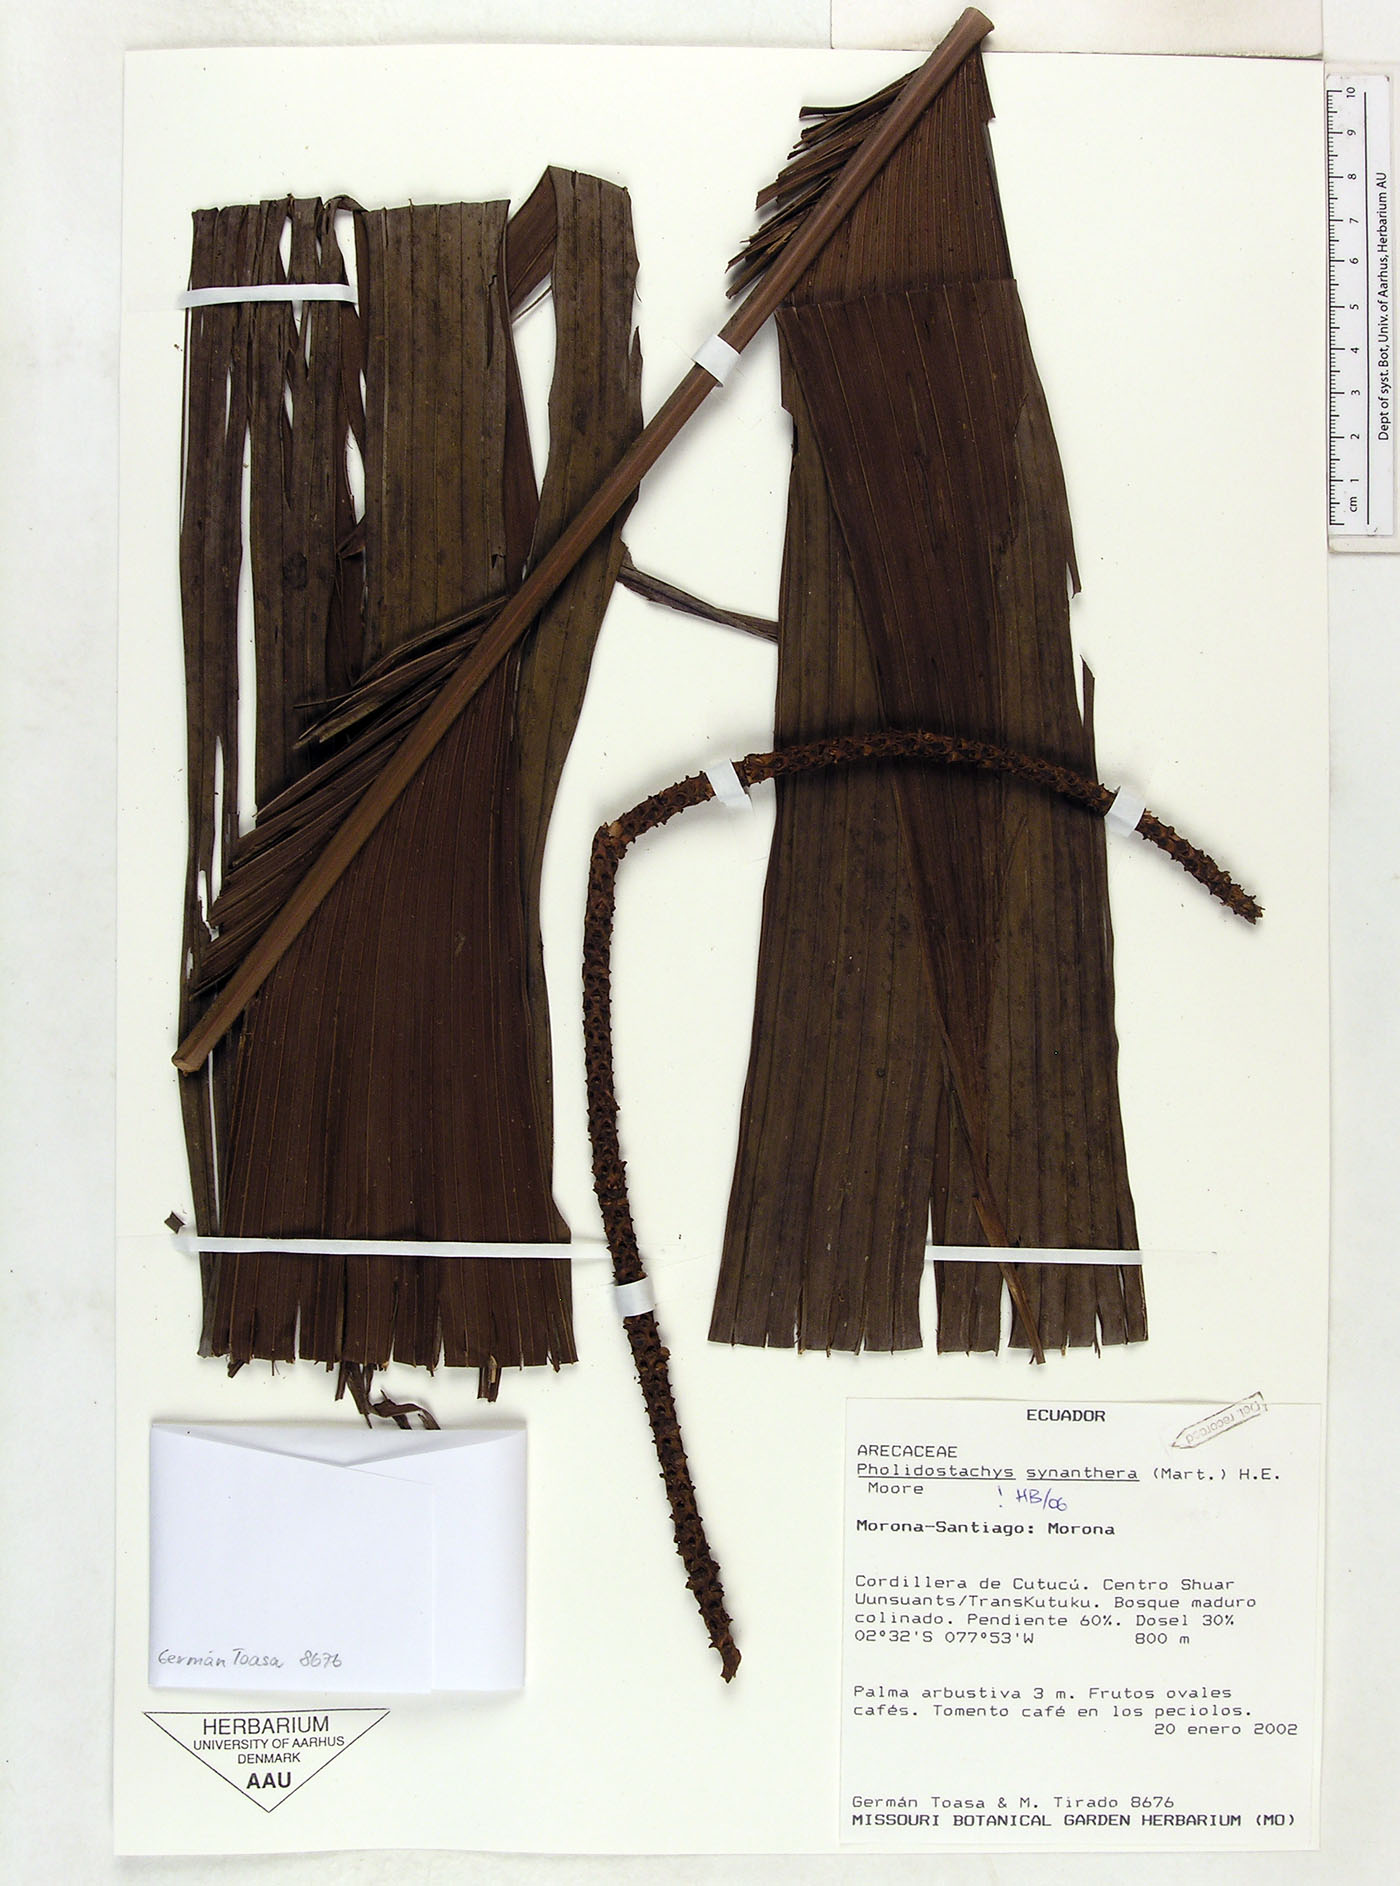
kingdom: Plantae
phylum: Tracheophyta
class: Liliopsida
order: Arecales
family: Arecaceae
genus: Pholidostachys
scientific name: Pholidostachys synanthera
